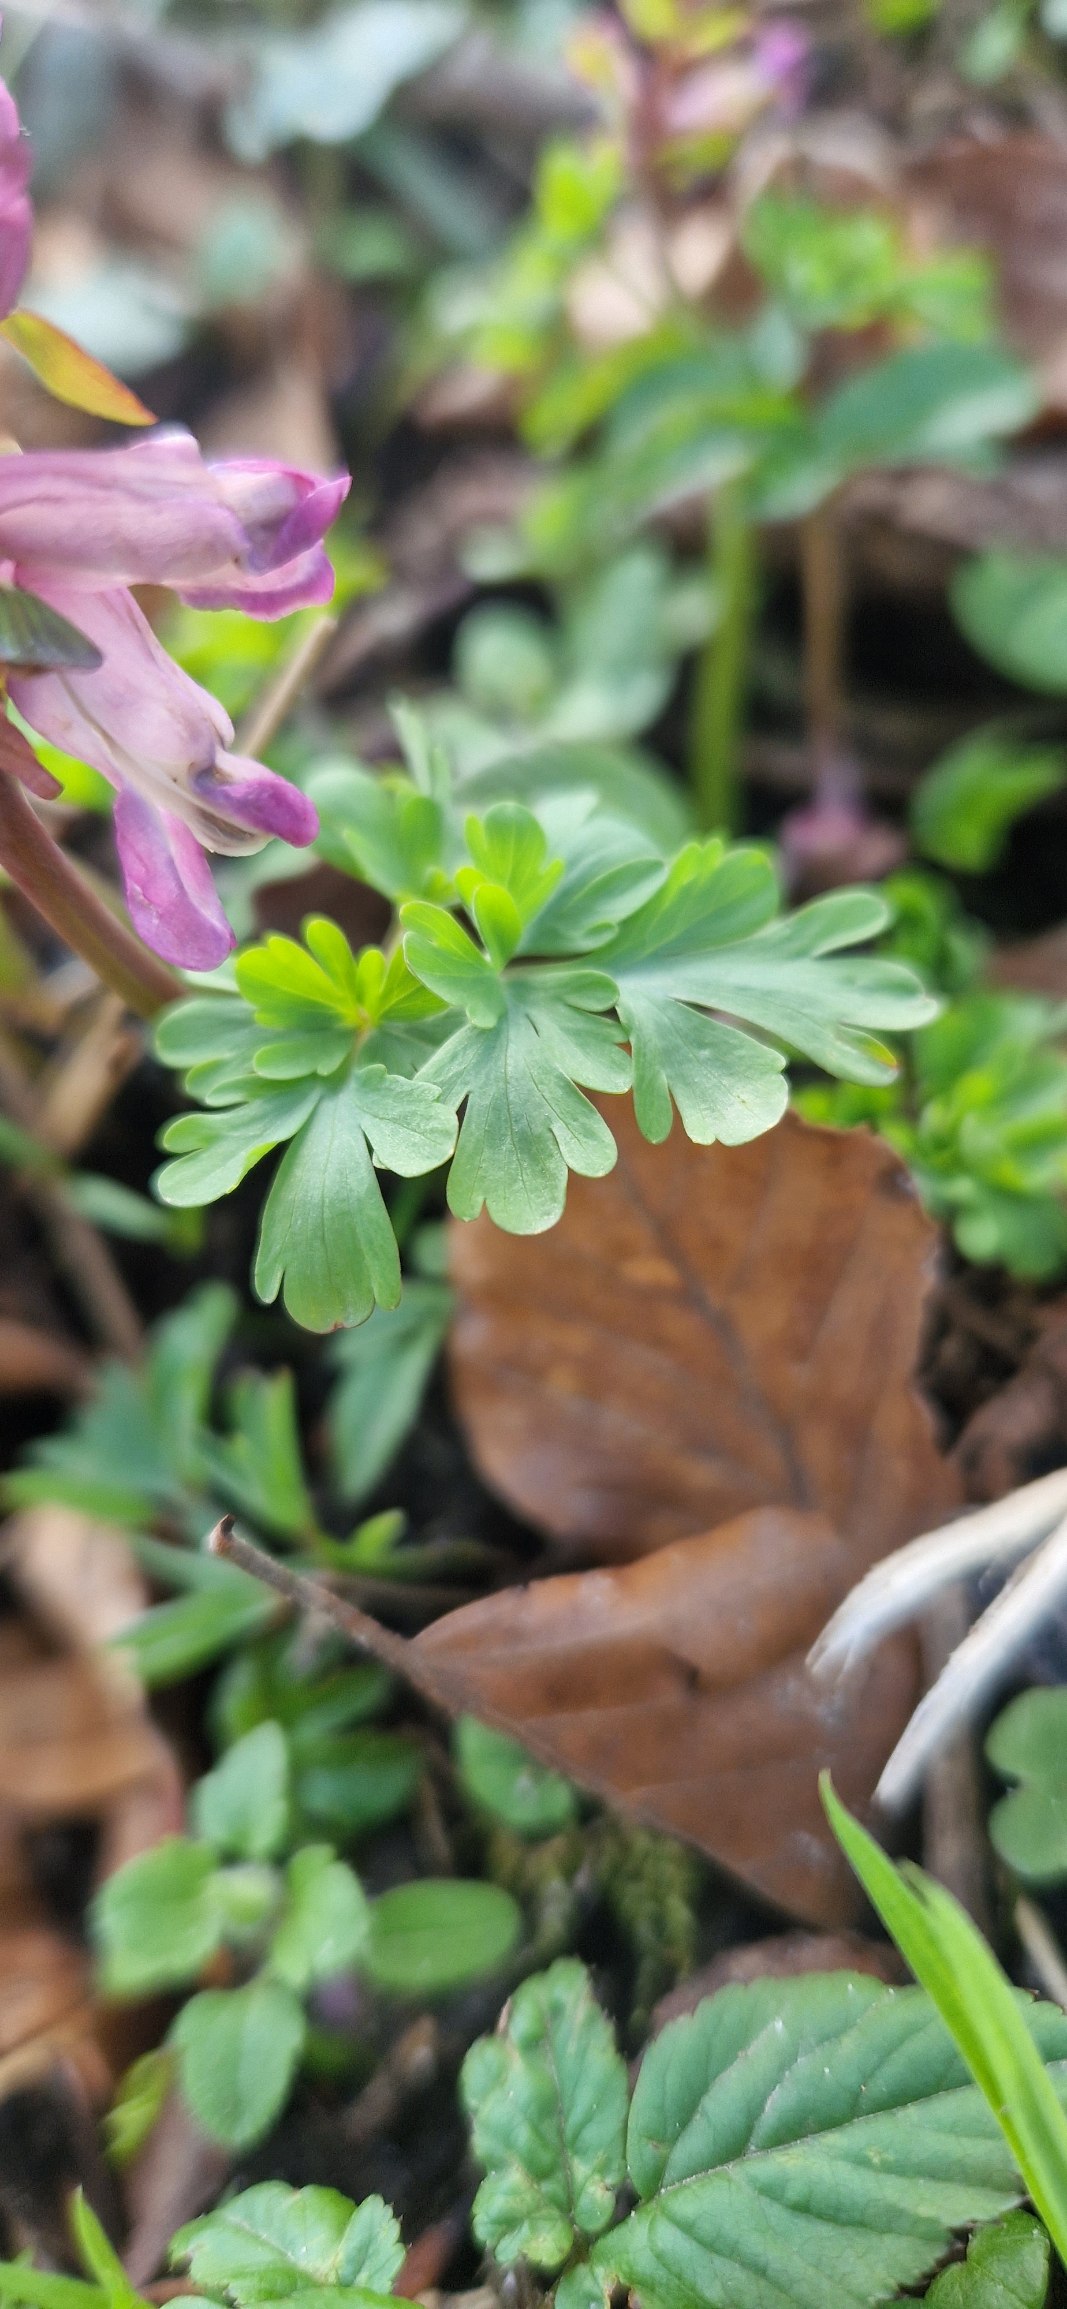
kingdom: Plantae
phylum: Tracheophyta
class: Magnoliopsida
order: Ranunculales
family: Papaveraceae
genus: Corydalis
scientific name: Corydalis cava
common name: Hulrodet lærkespore
